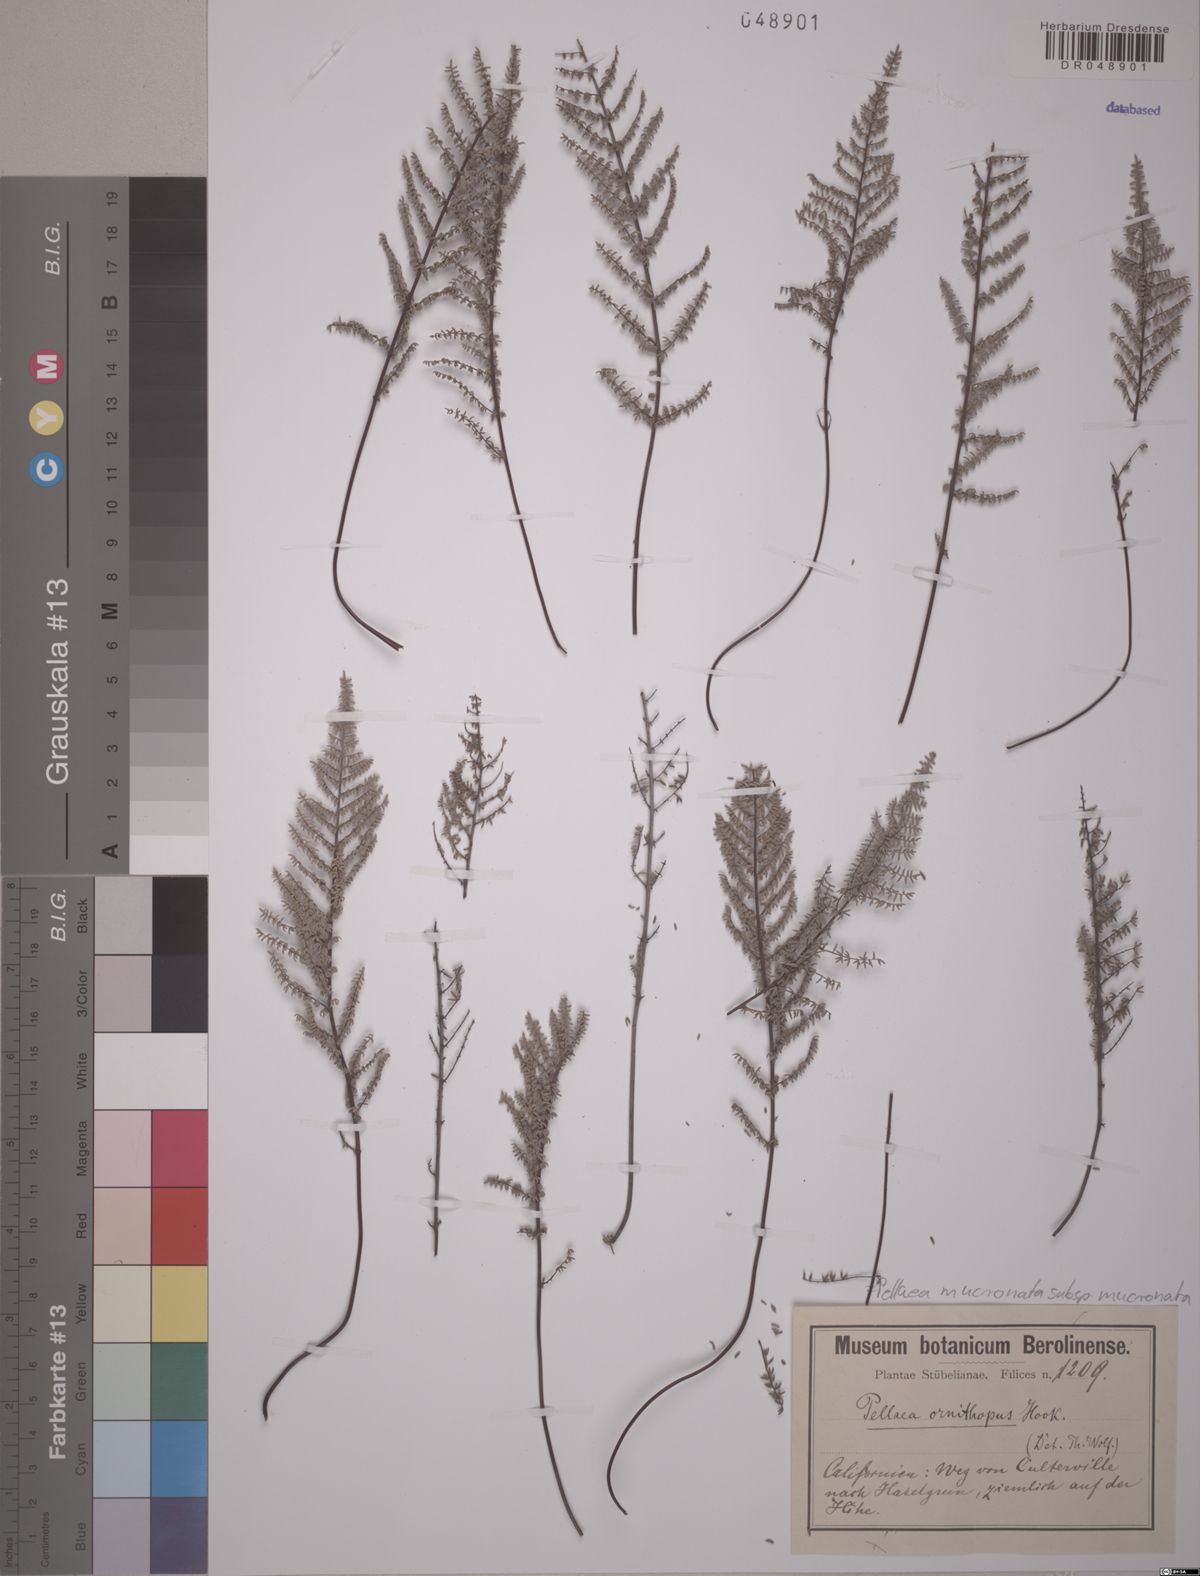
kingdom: Plantae
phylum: Tracheophyta
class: Polypodiopsida
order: Polypodiales
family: Pteridaceae
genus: Pellaea
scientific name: Pellaea mucronata
